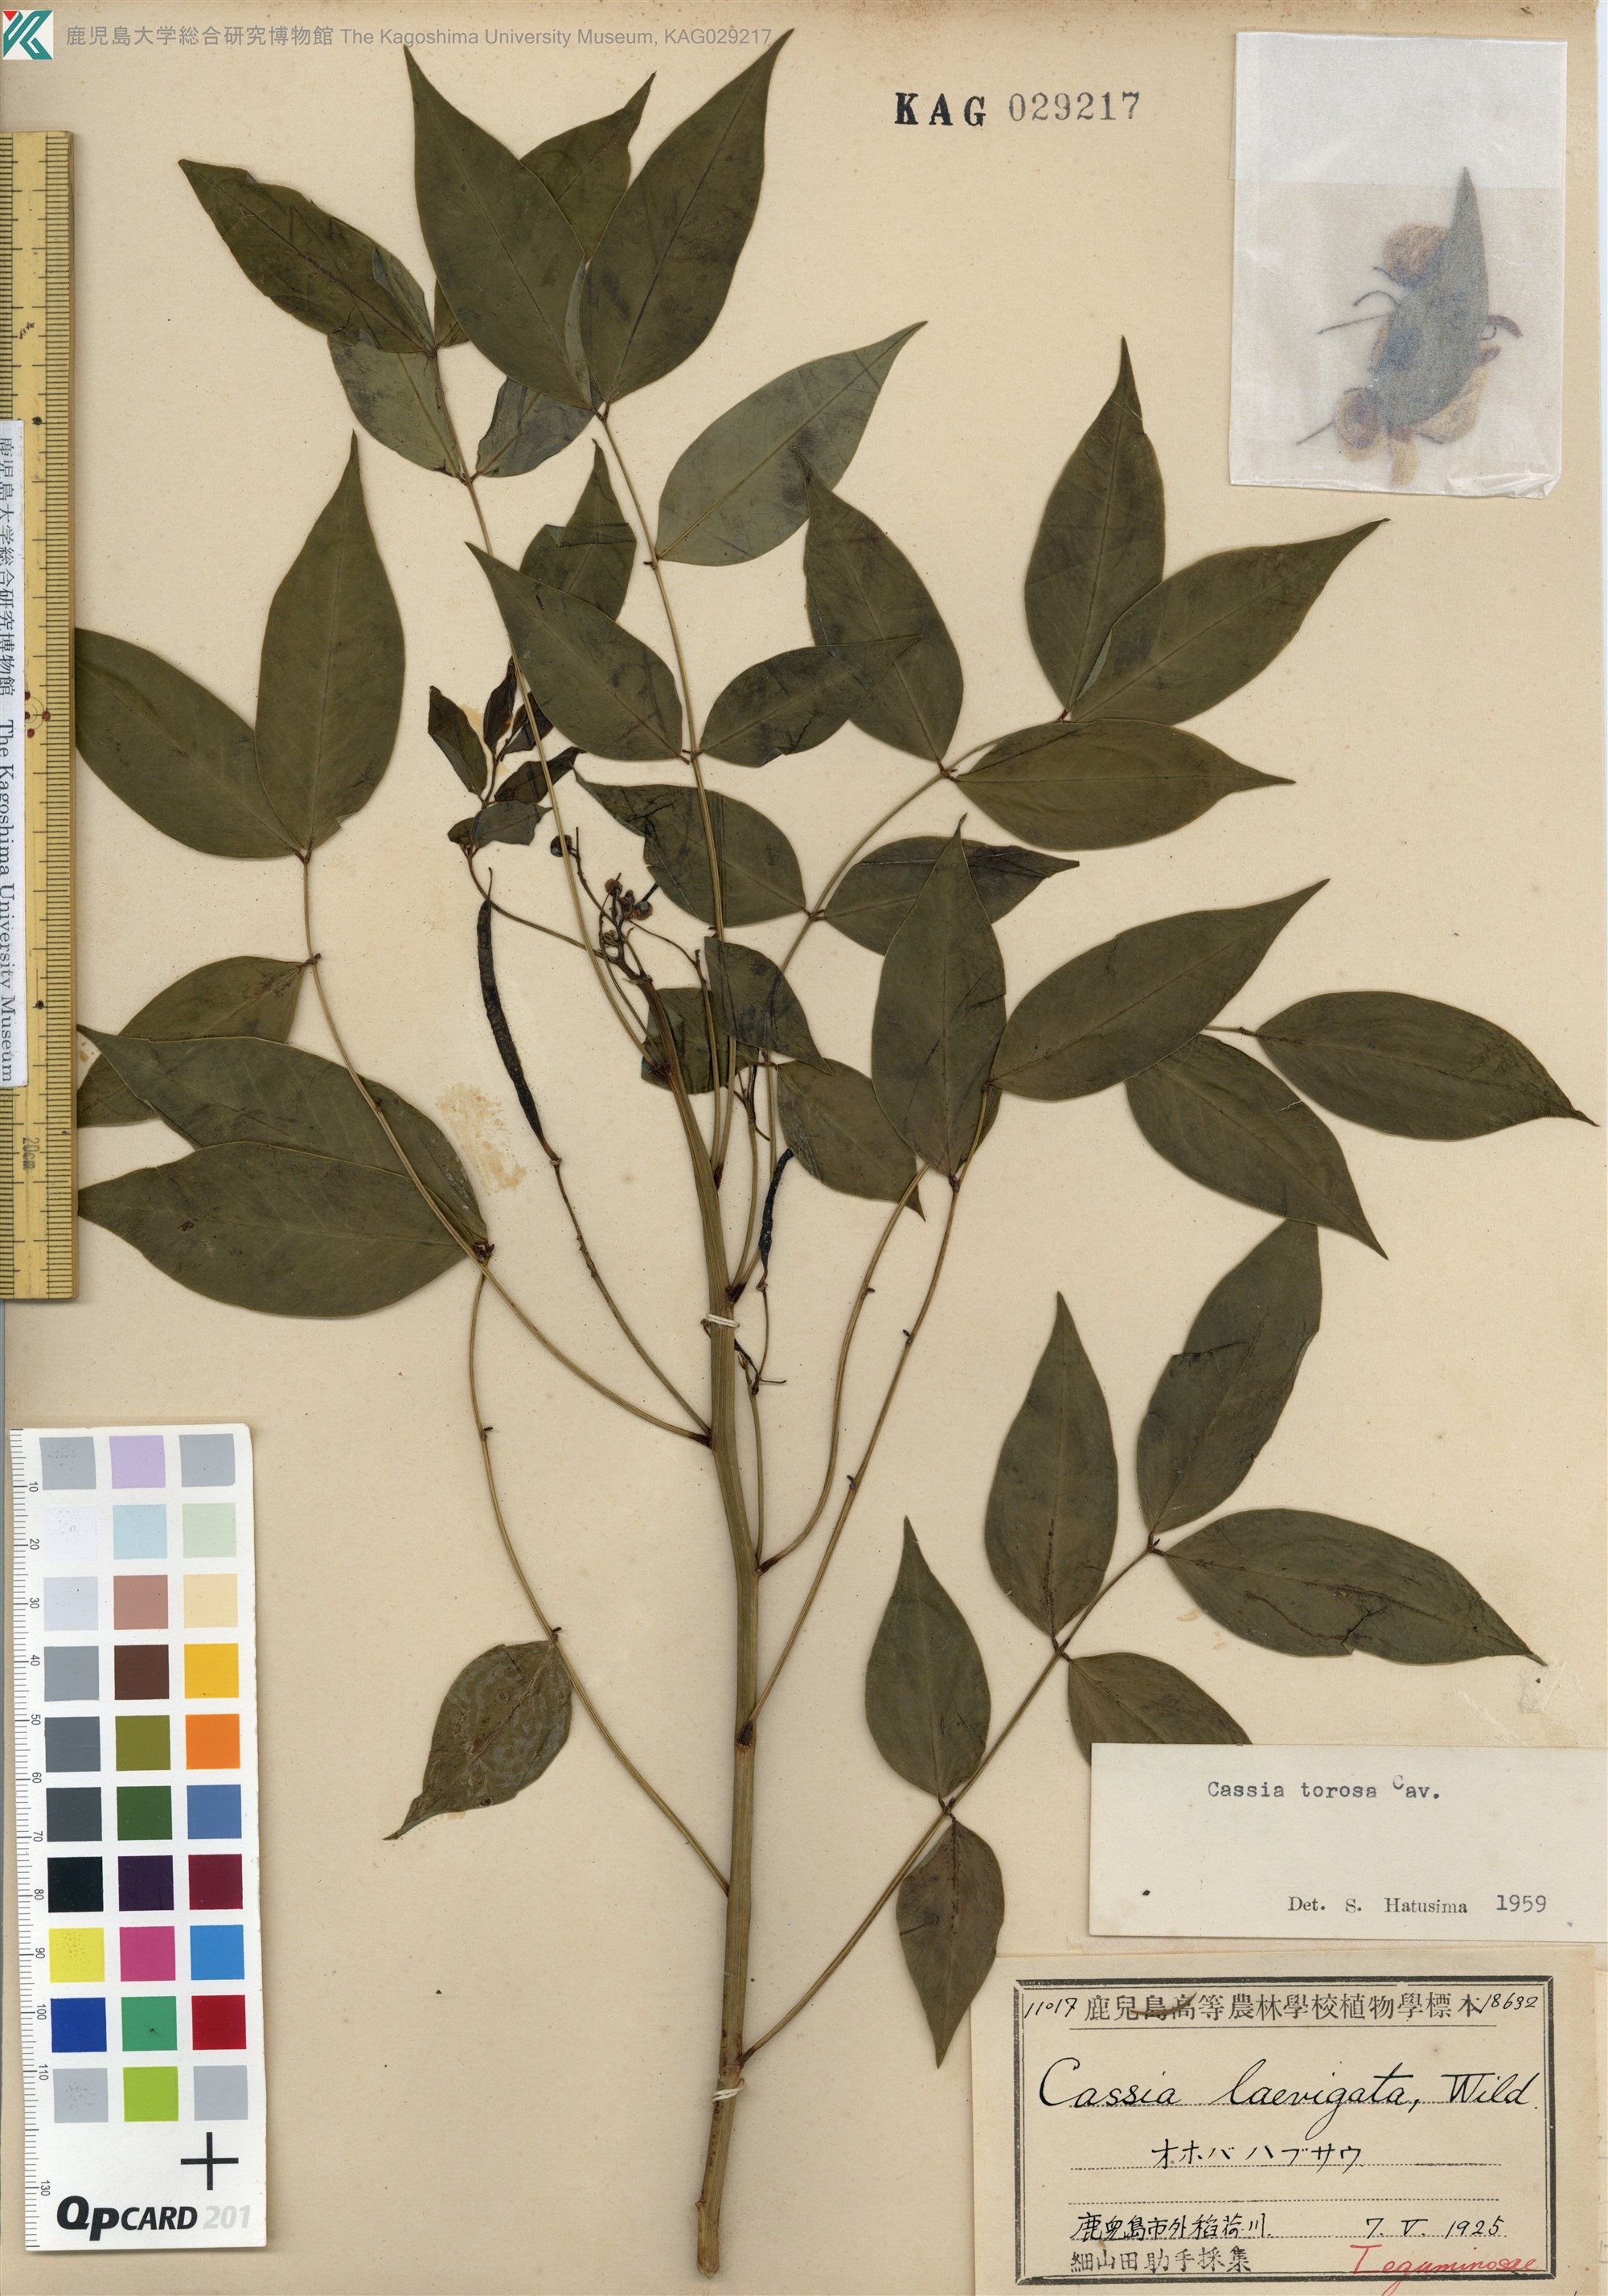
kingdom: Plantae
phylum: Tracheophyta
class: Magnoliopsida
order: Fabales
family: Fabaceae
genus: Senna
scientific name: Senna occidentalis
